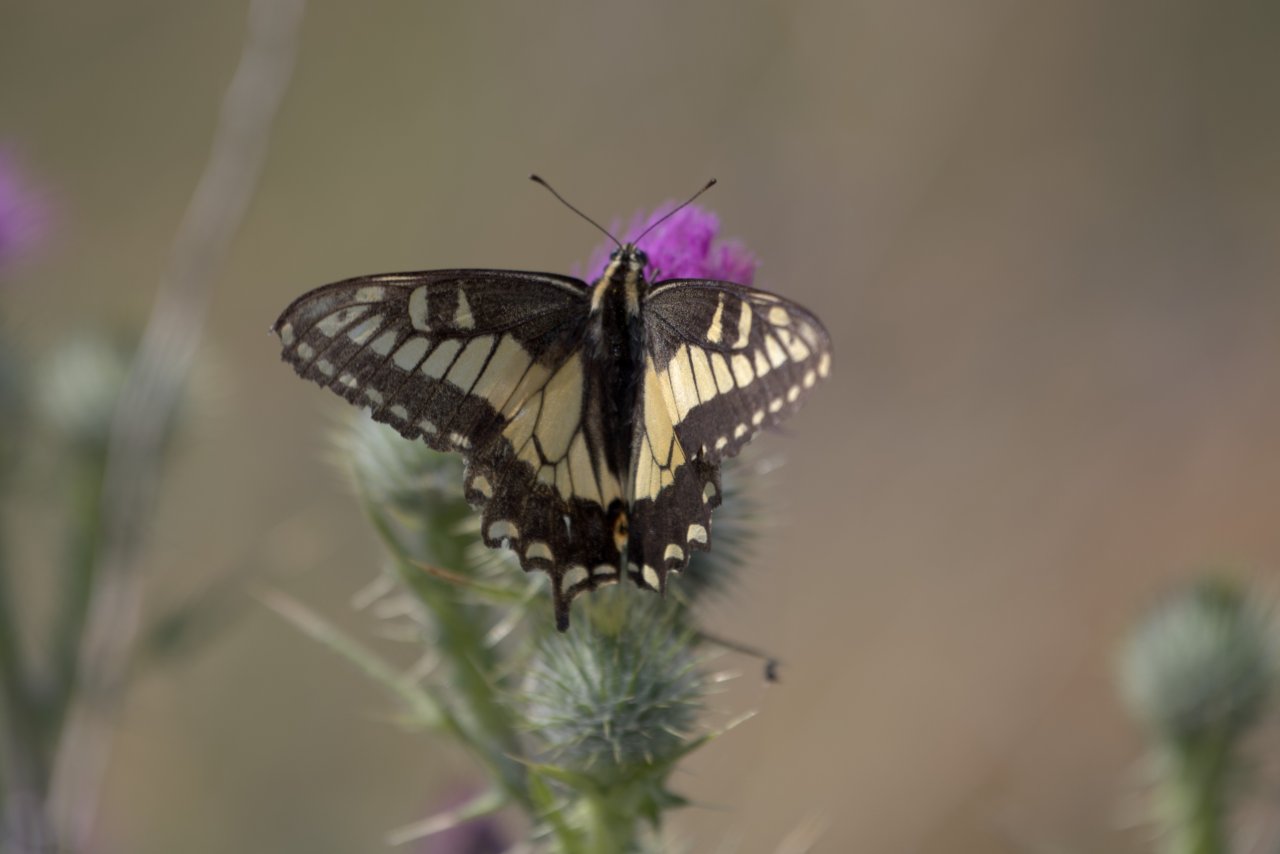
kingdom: Animalia
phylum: Arthropoda
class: Insecta
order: Lepidoptera
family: Papilionidae
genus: Papilio
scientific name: Papilio zelicaon
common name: Anise Swallowtail
